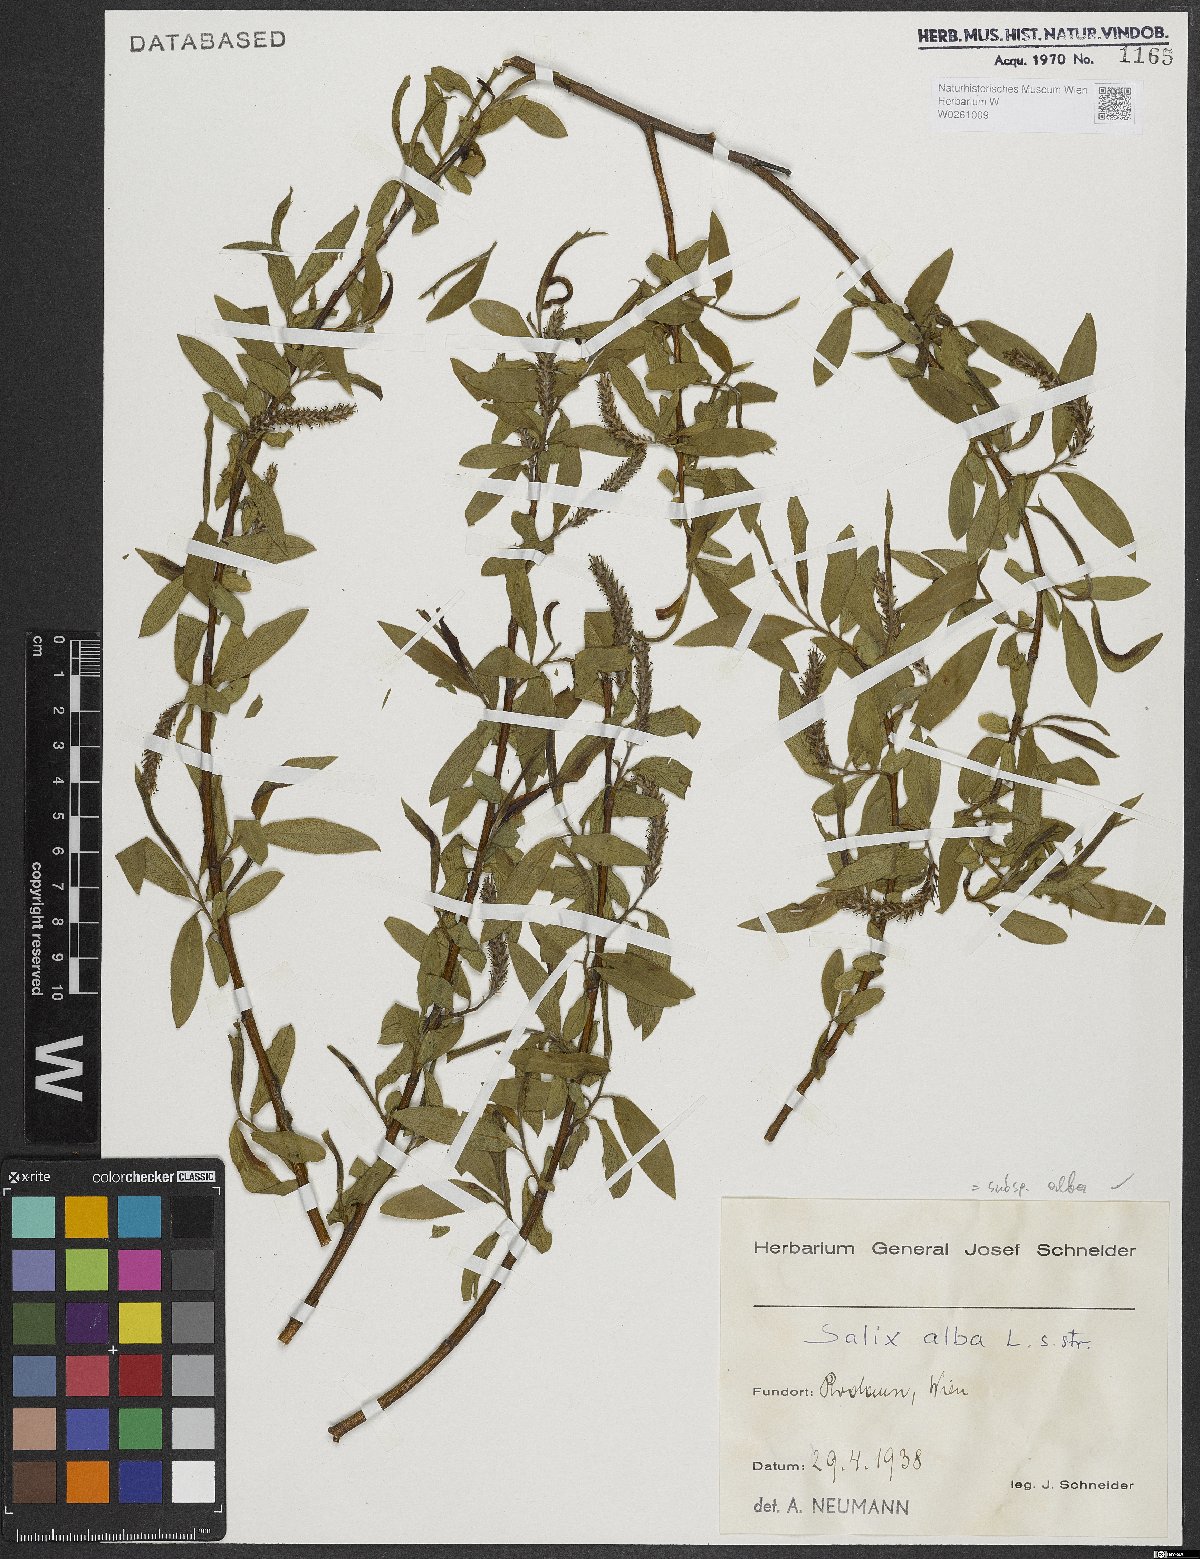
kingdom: Plantae
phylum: Tracheophyta
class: Magnoliopsida
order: Malpighiales
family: Salicaceae
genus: Salix
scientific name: Salix alba
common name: White willow
